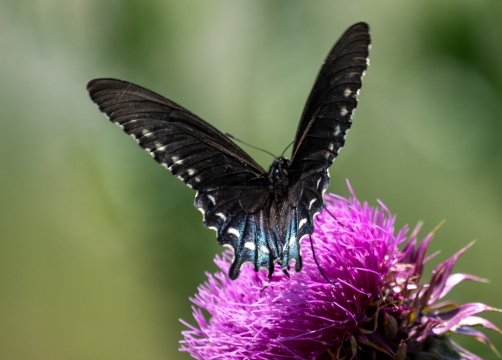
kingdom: Animalia
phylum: Arthropoda
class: Insecta
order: Lepidoptera
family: Papilionidae
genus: Battus
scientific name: Battus philenor
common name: Pipevine Swallowtail
